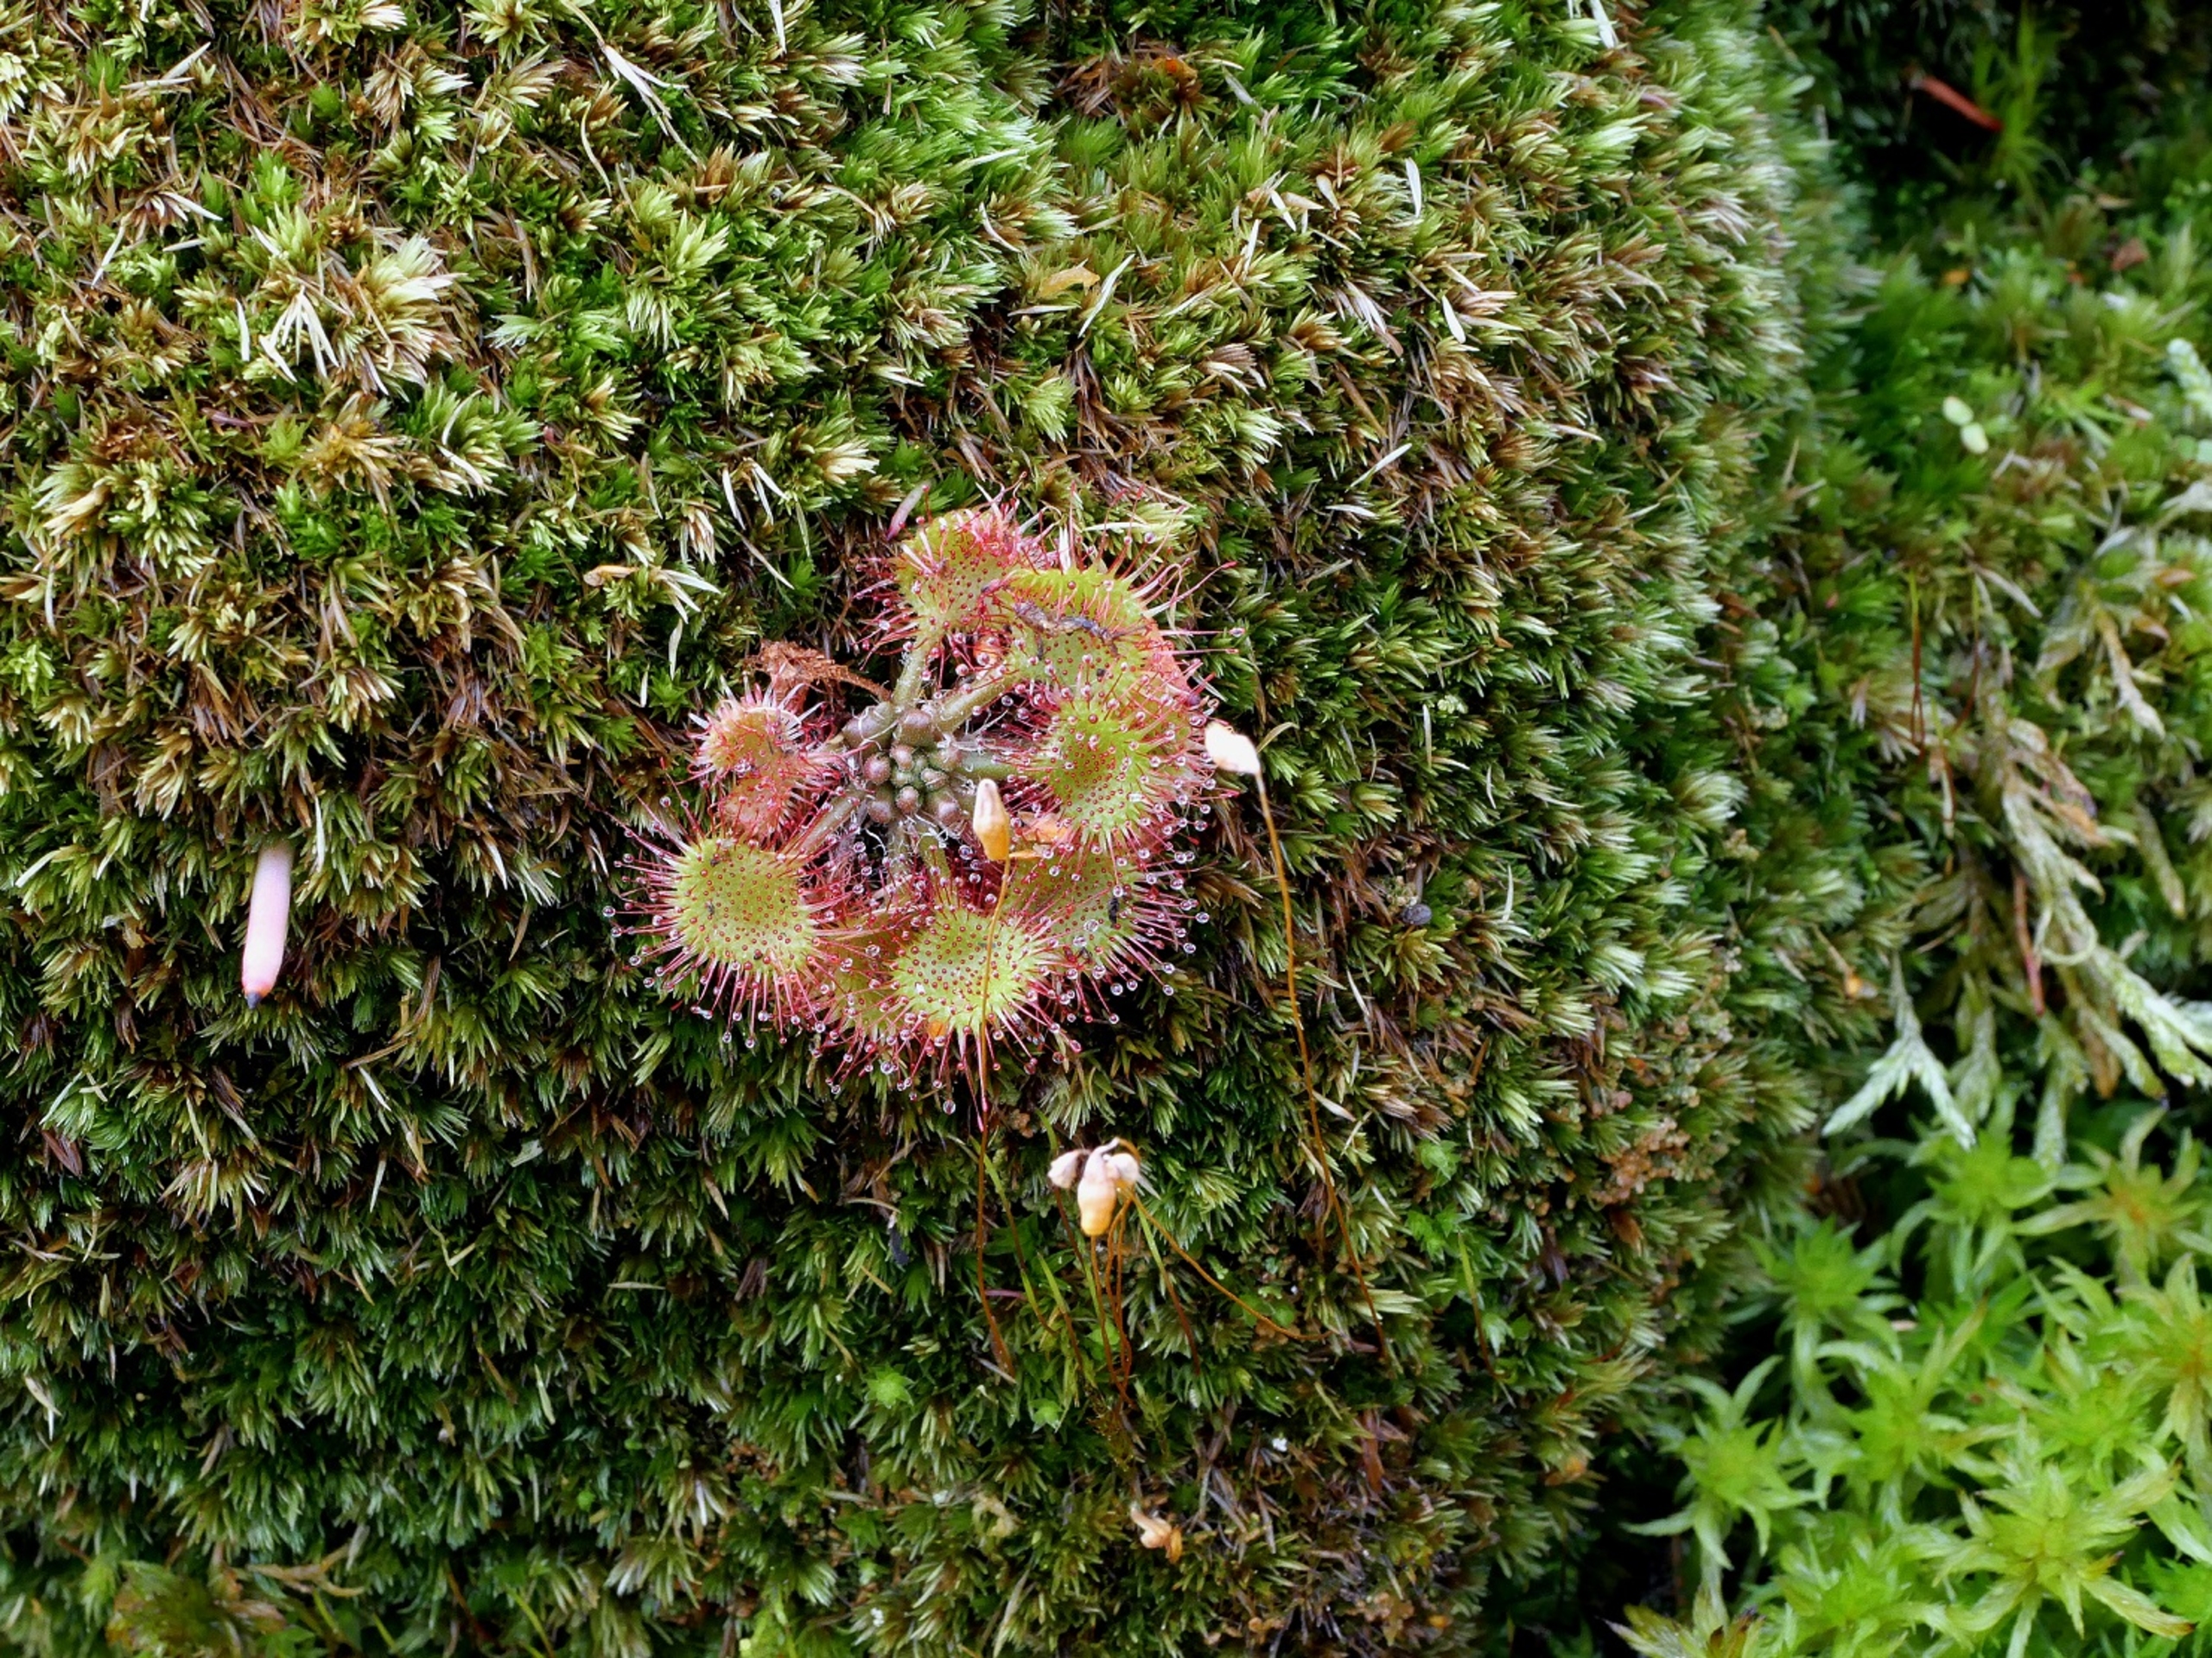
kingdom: Plantae
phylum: Tracheophyta
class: Magnoliopsida
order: Caryophyllales
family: Droseraceae
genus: Drosera
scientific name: Drosera rotundifolia
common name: Rundbladet soldug
